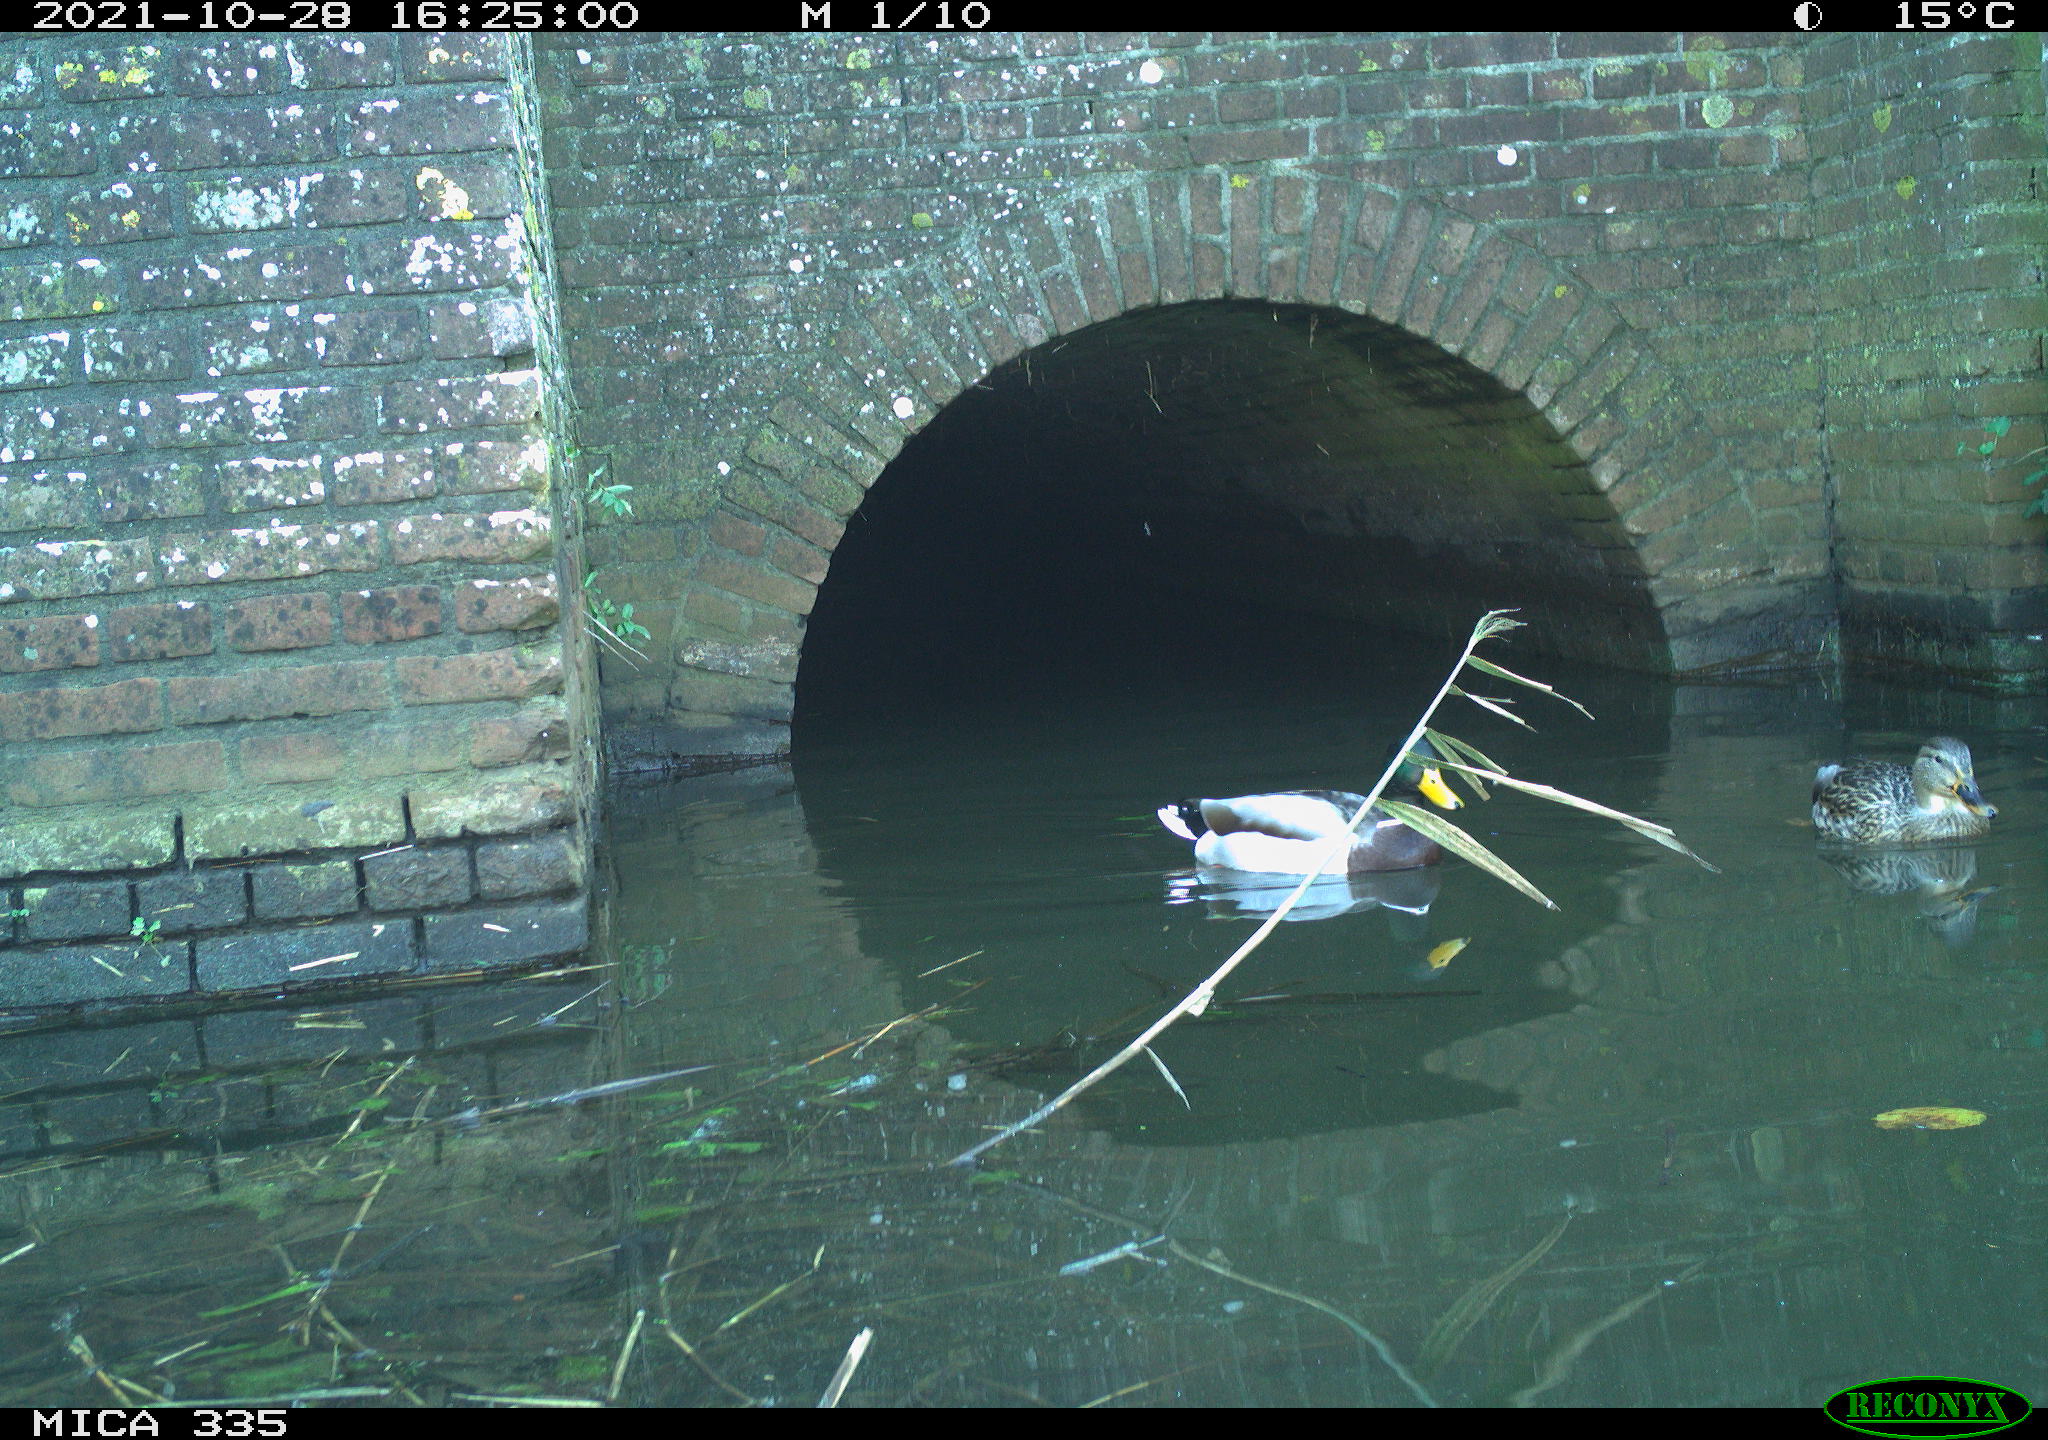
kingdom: Animalia
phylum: Chordata
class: Aves
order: Anseriformes
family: Anatidae
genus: Anas
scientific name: Anas platyrhynchos
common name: Mallard
